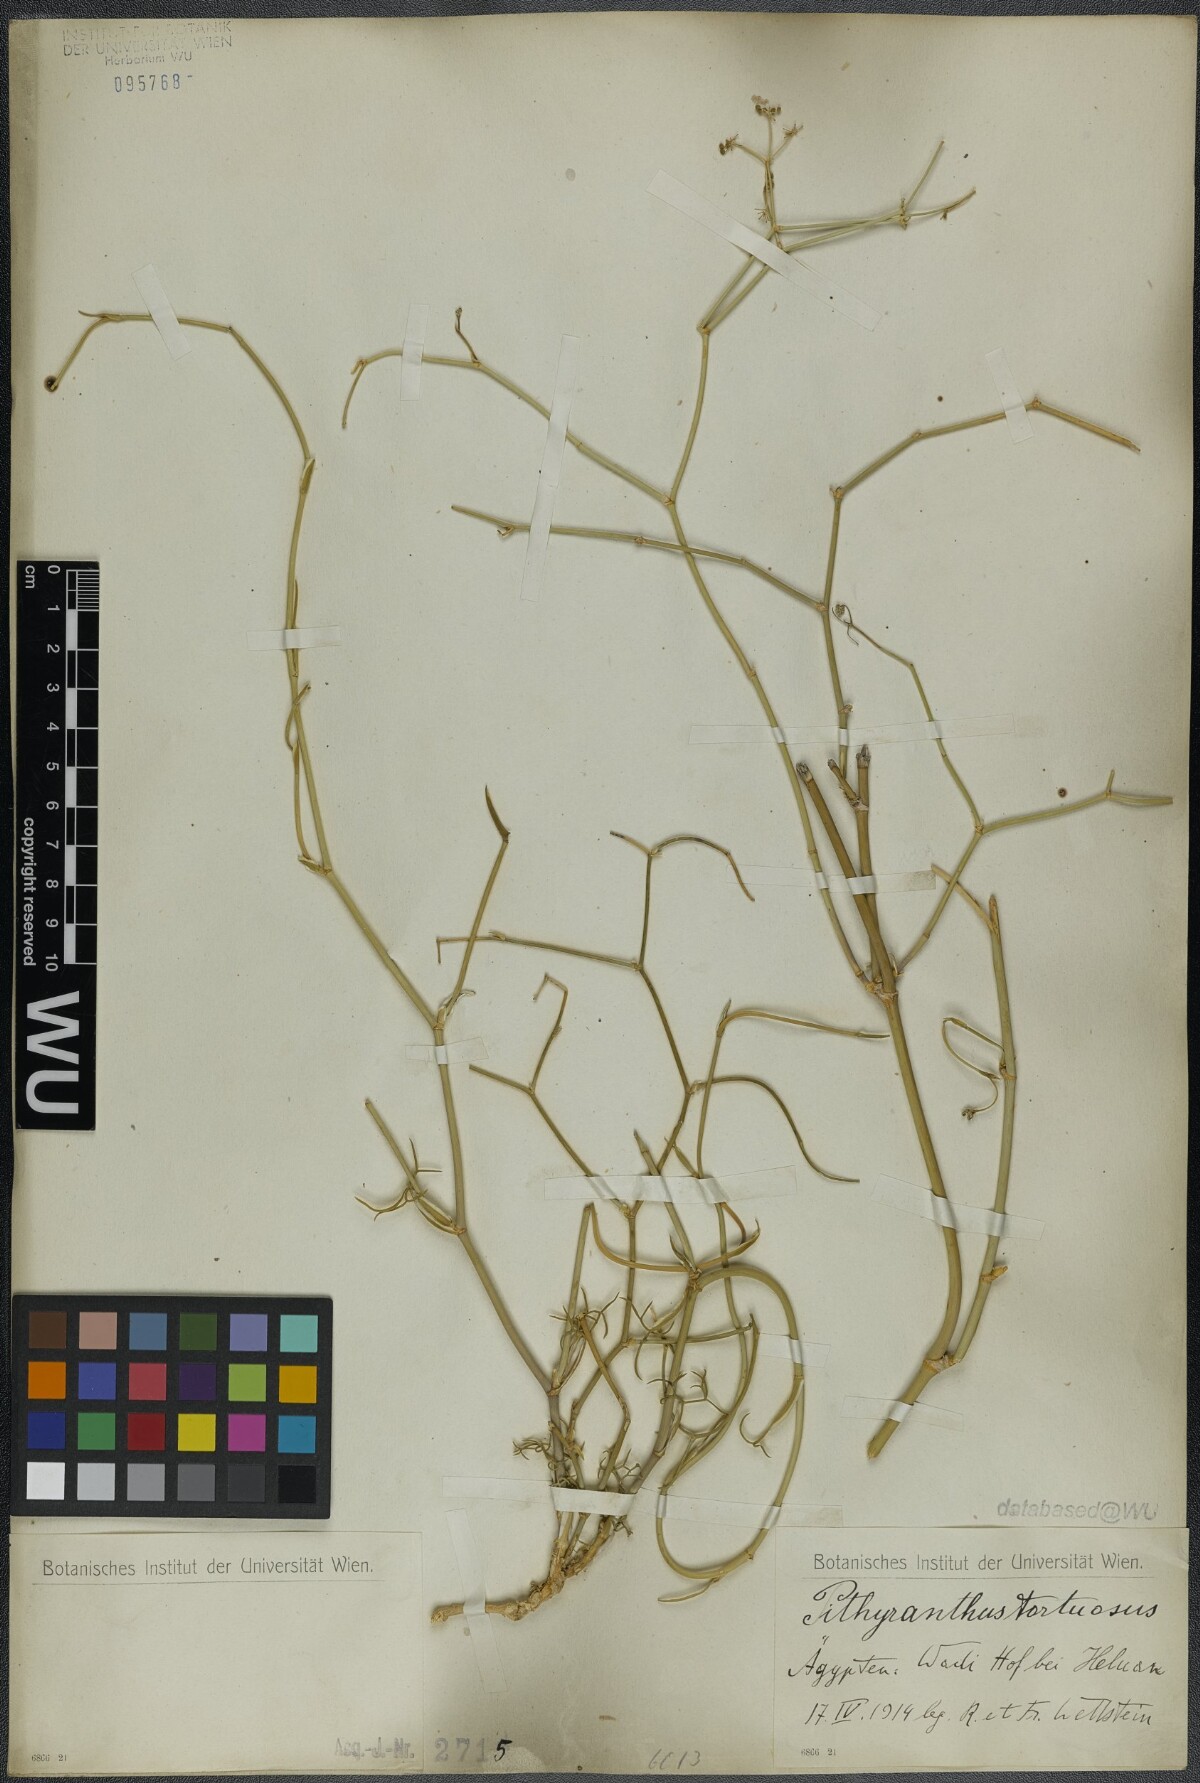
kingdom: Plantae
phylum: Tracheophyta
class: Magnoliopsida
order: Apiales
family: Apiaceae
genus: Deverra
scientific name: Deverra tortuosa
